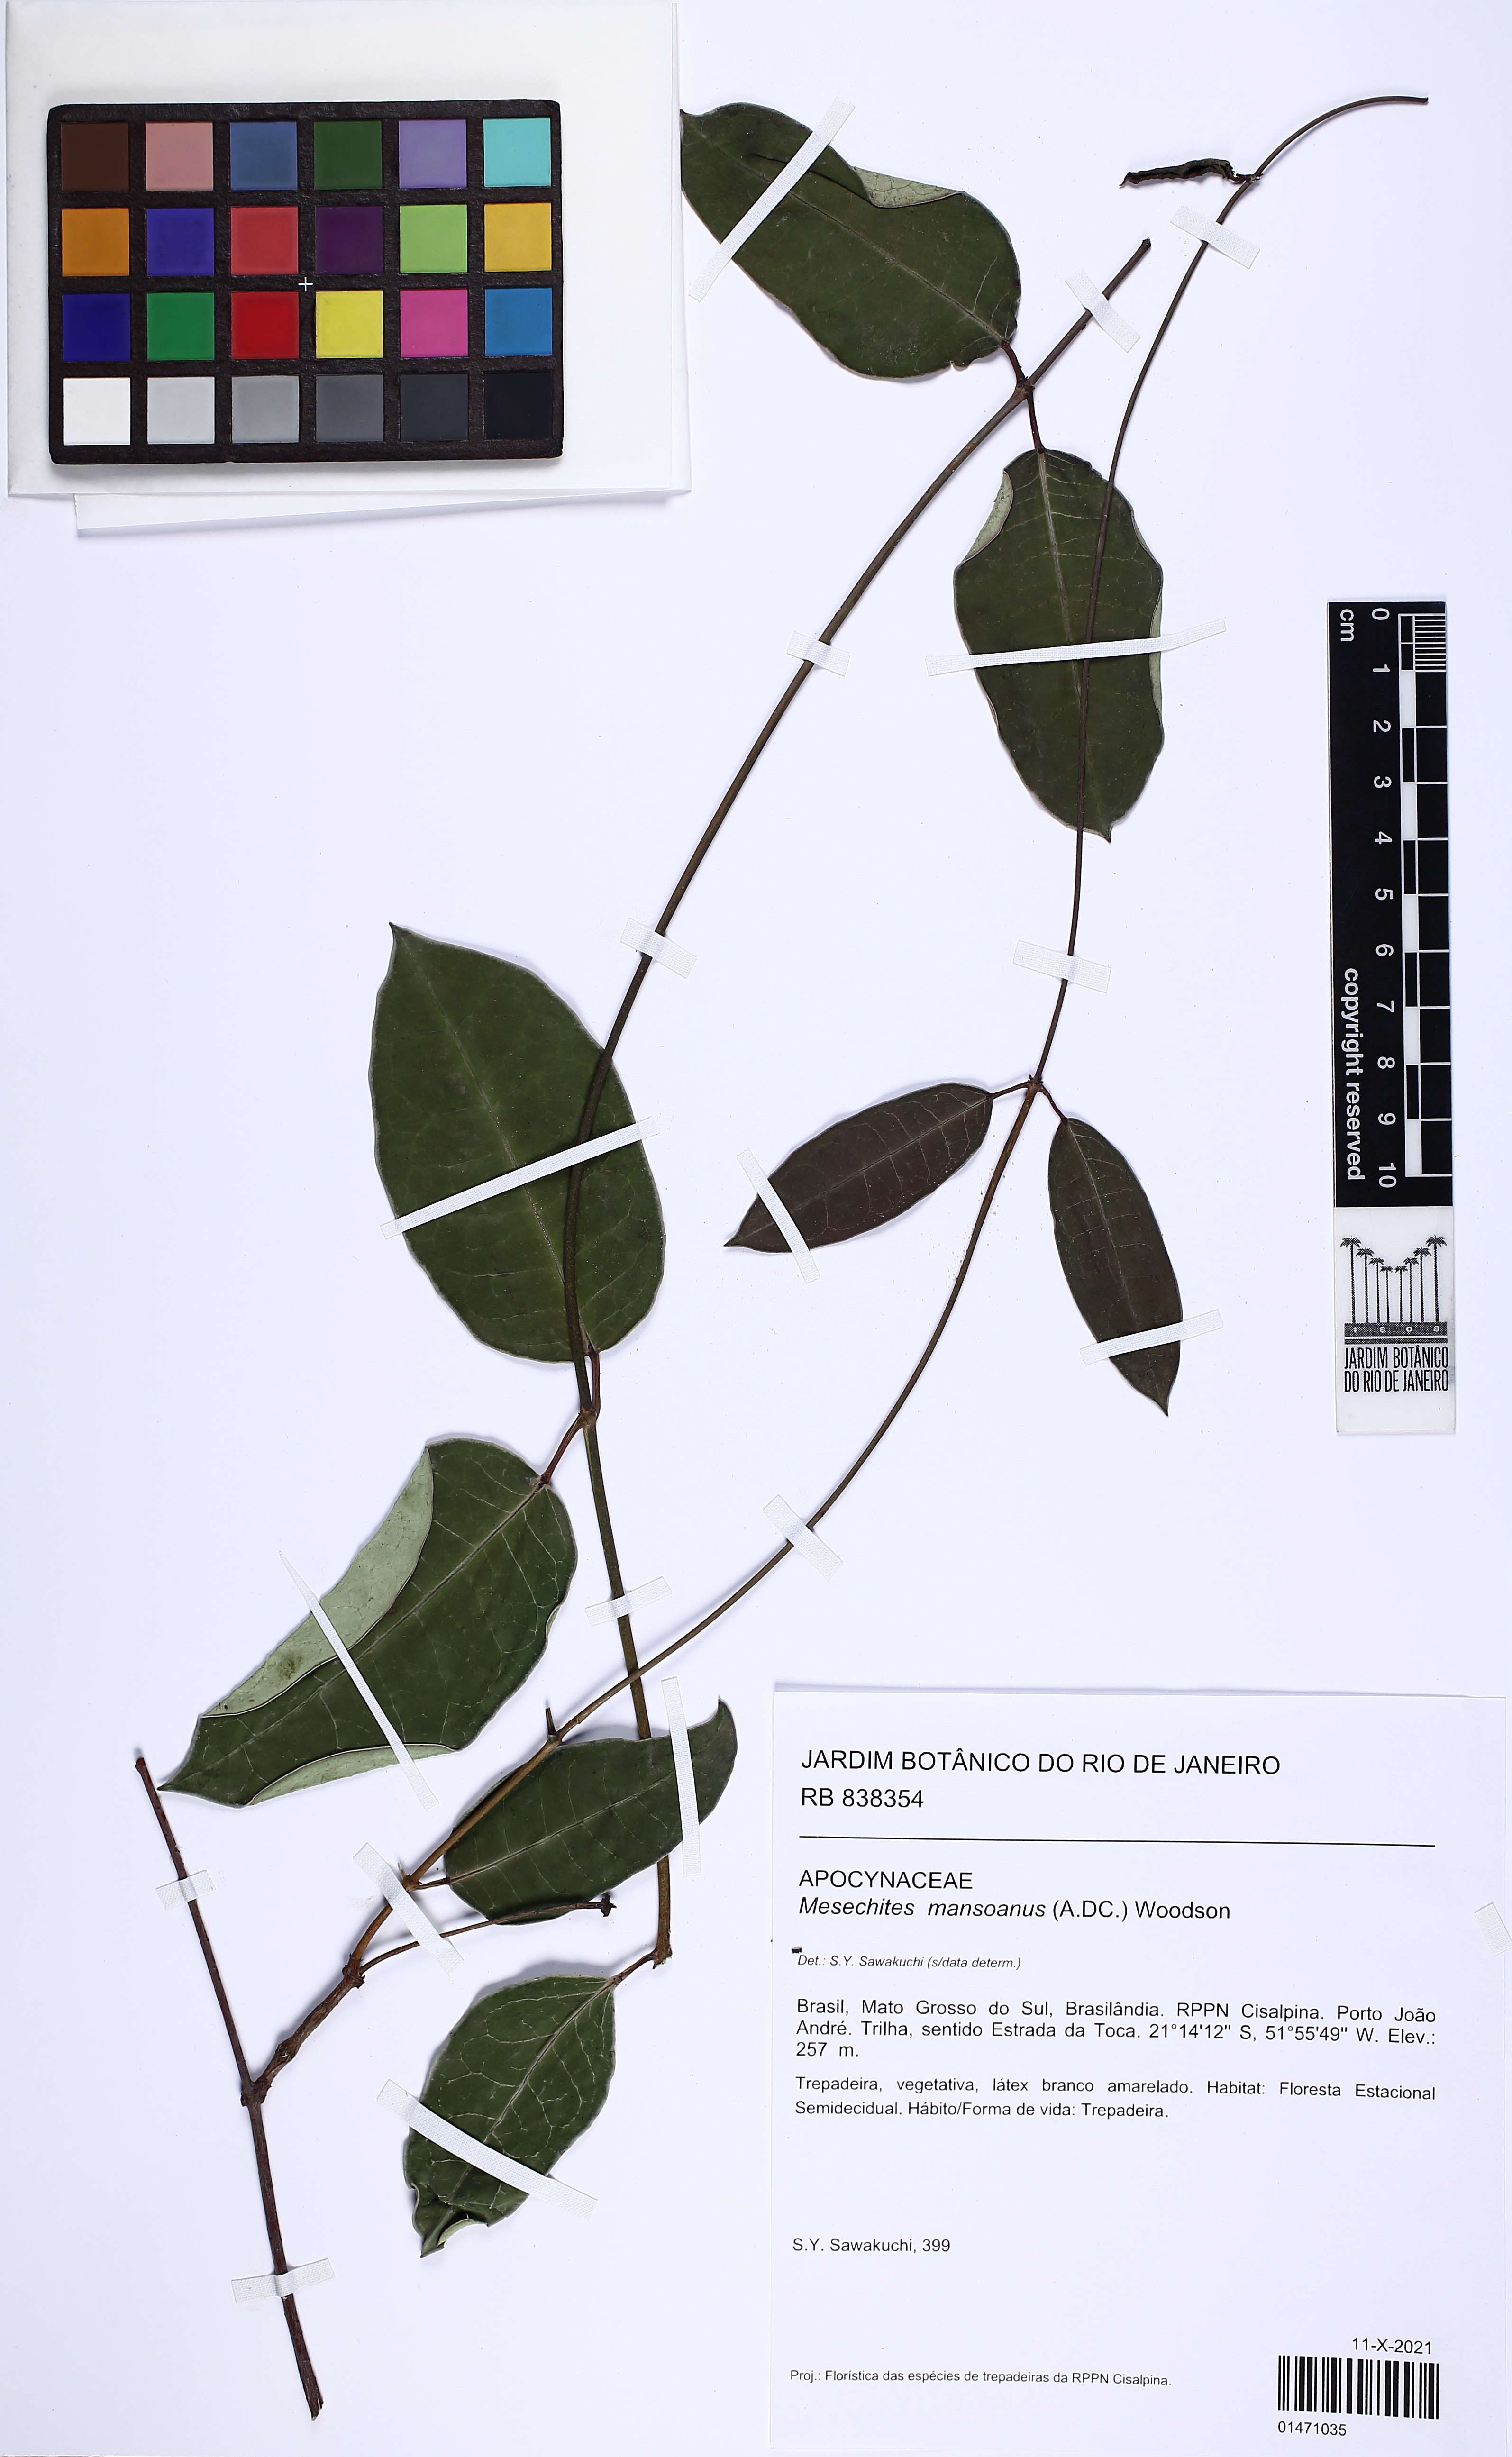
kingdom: Plantae
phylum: Tracheophyta
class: Magnoliopsida
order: Gentianales
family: Apocynaceae
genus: Mesechites
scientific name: Mesechites mansoanus
